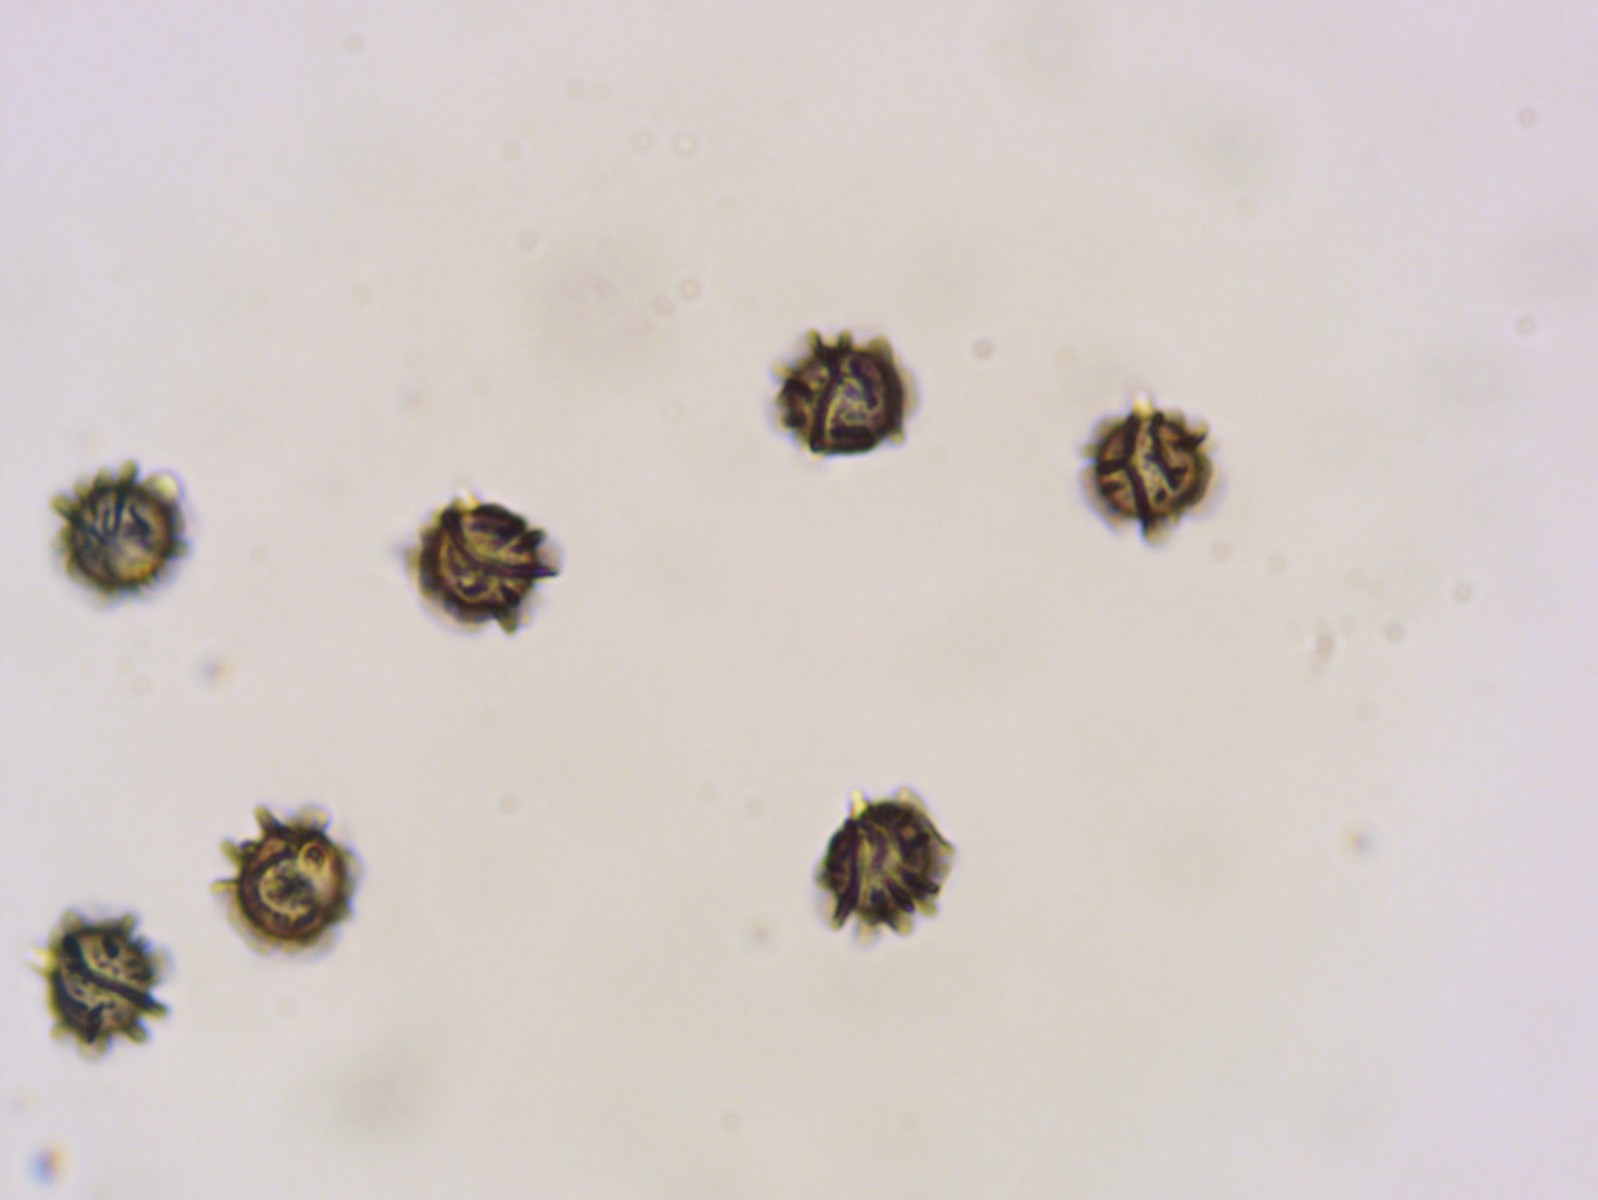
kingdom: Fungi
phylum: Basidiomycota
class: Agaricomycetes
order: Russulales
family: Russulaceae
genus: Lactarius
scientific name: Lactarius ruginosus
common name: gråbrun mælkehat
